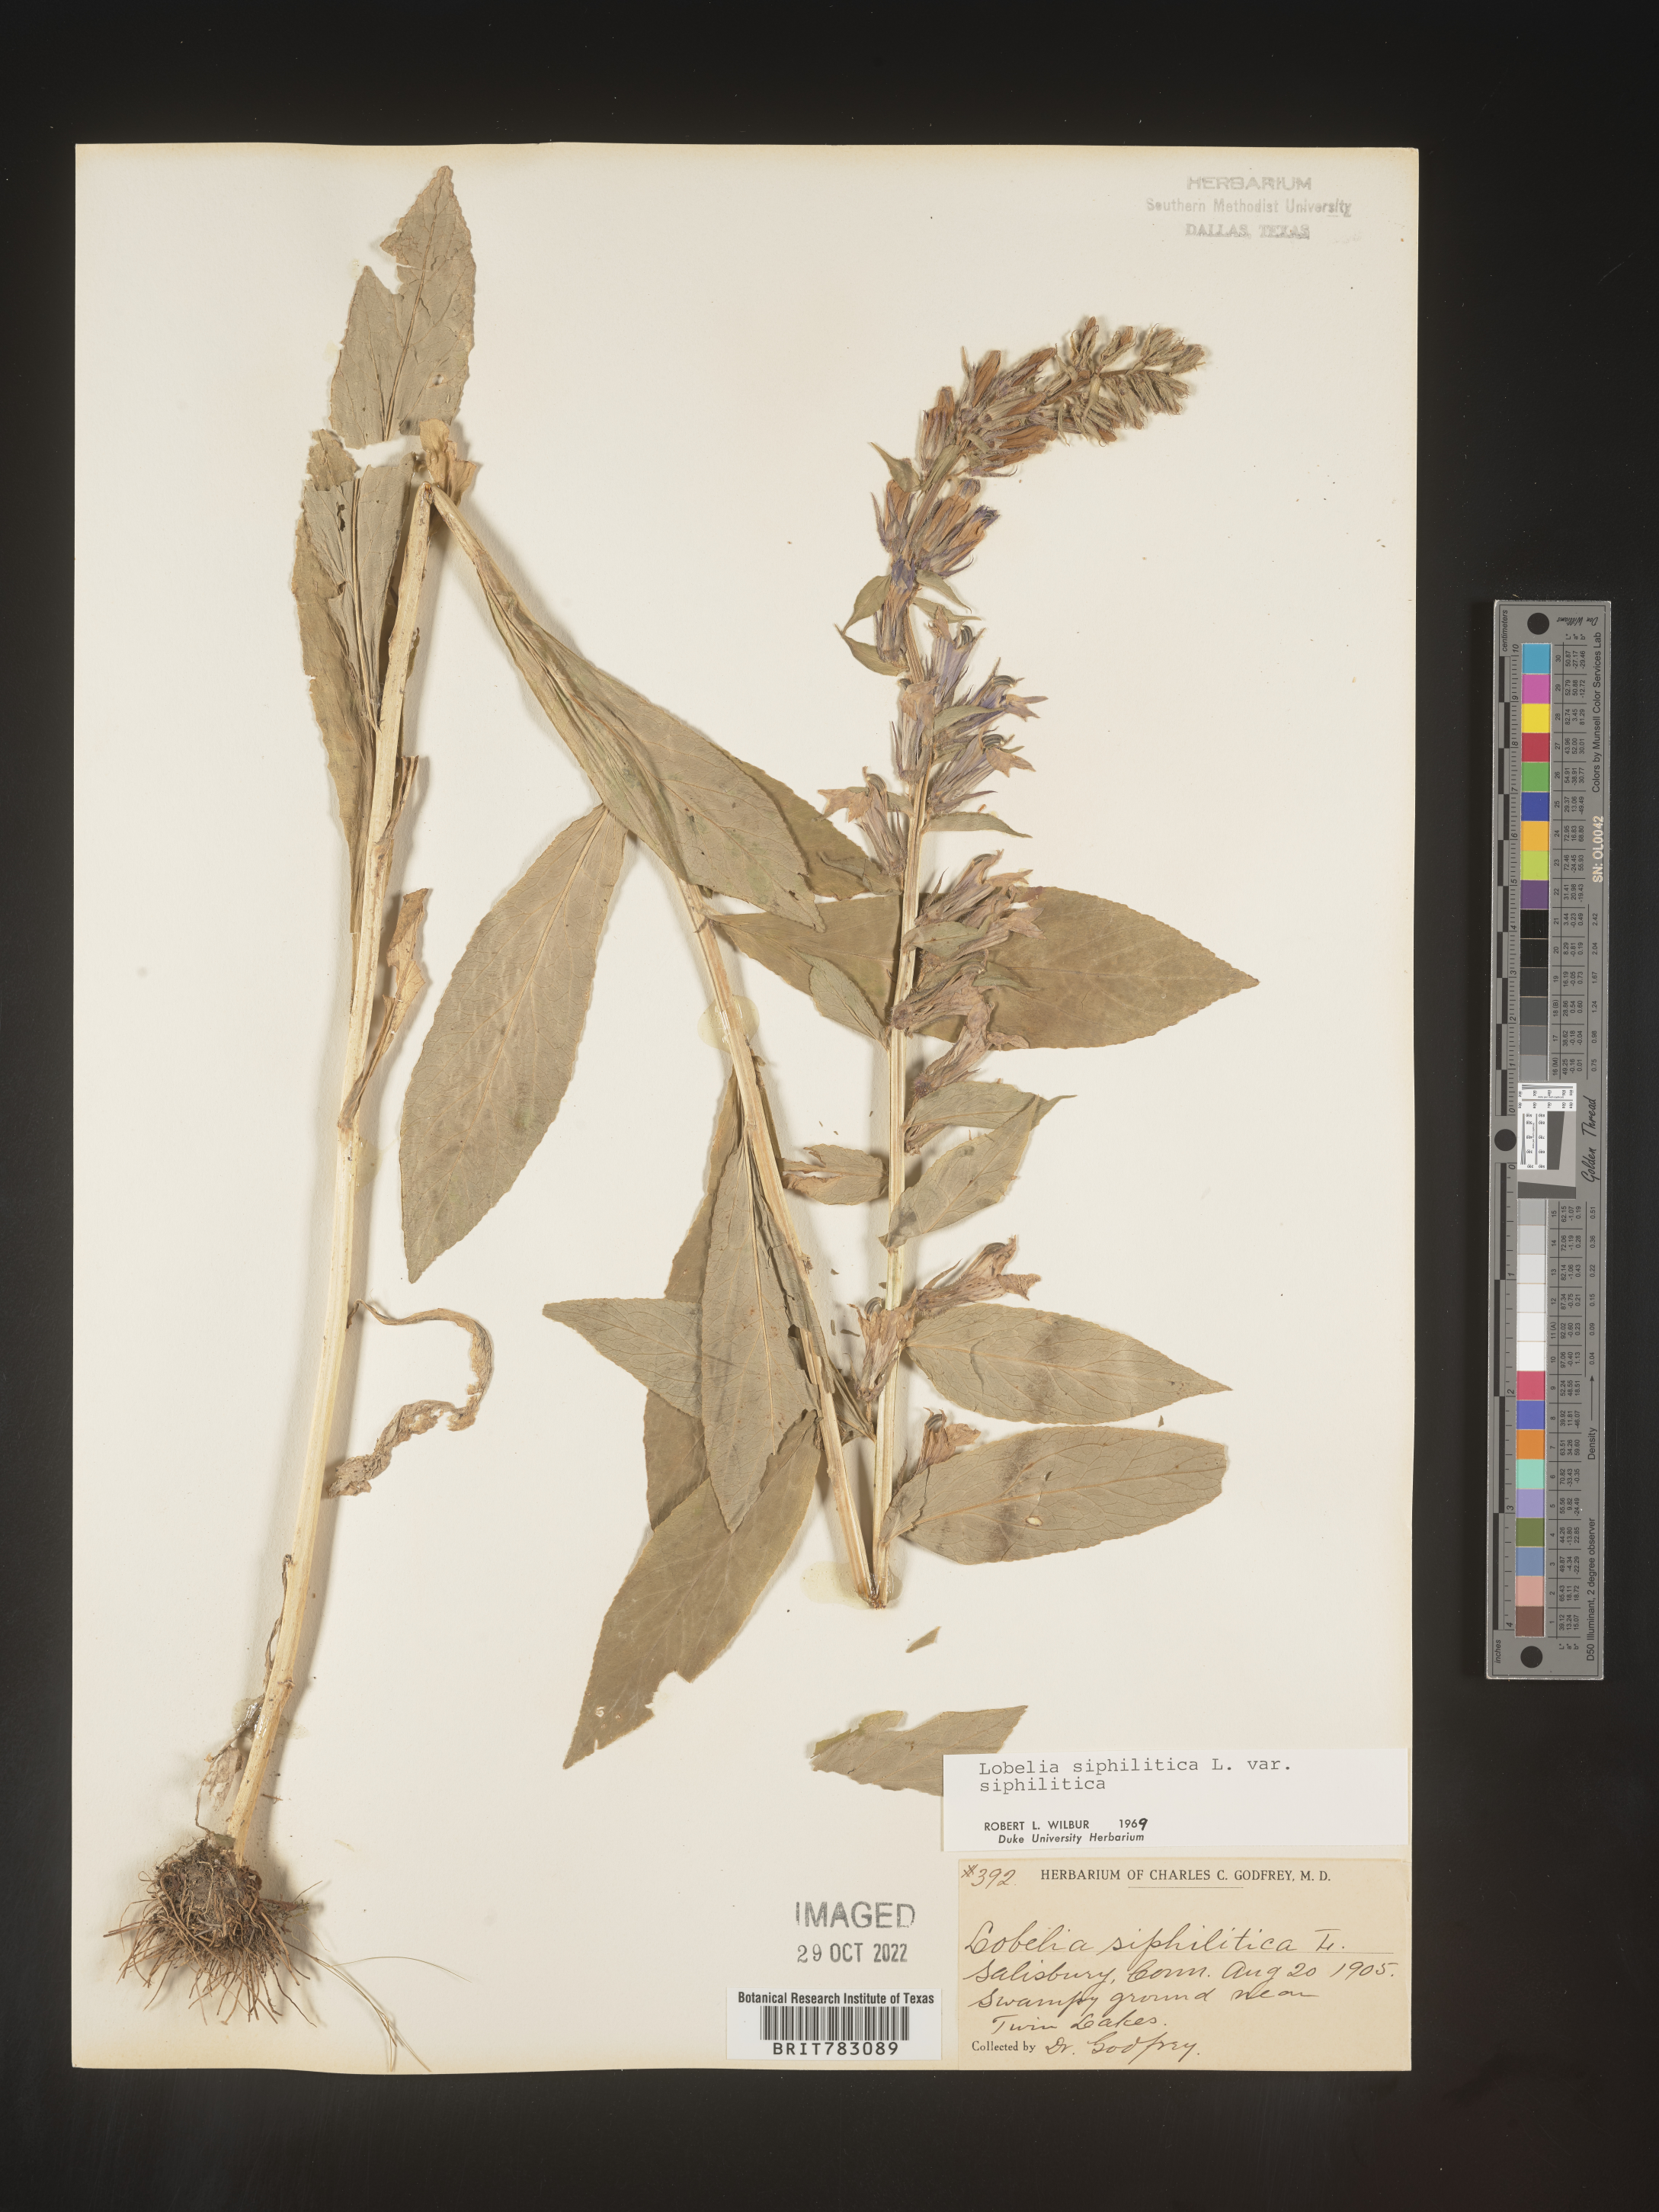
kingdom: Plantae
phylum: Tracheophyta
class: Magnoliopsida
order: Asterales
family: Campanulaceae
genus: Lobelia
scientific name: Lobelia siphilitica
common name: Great lobelia
